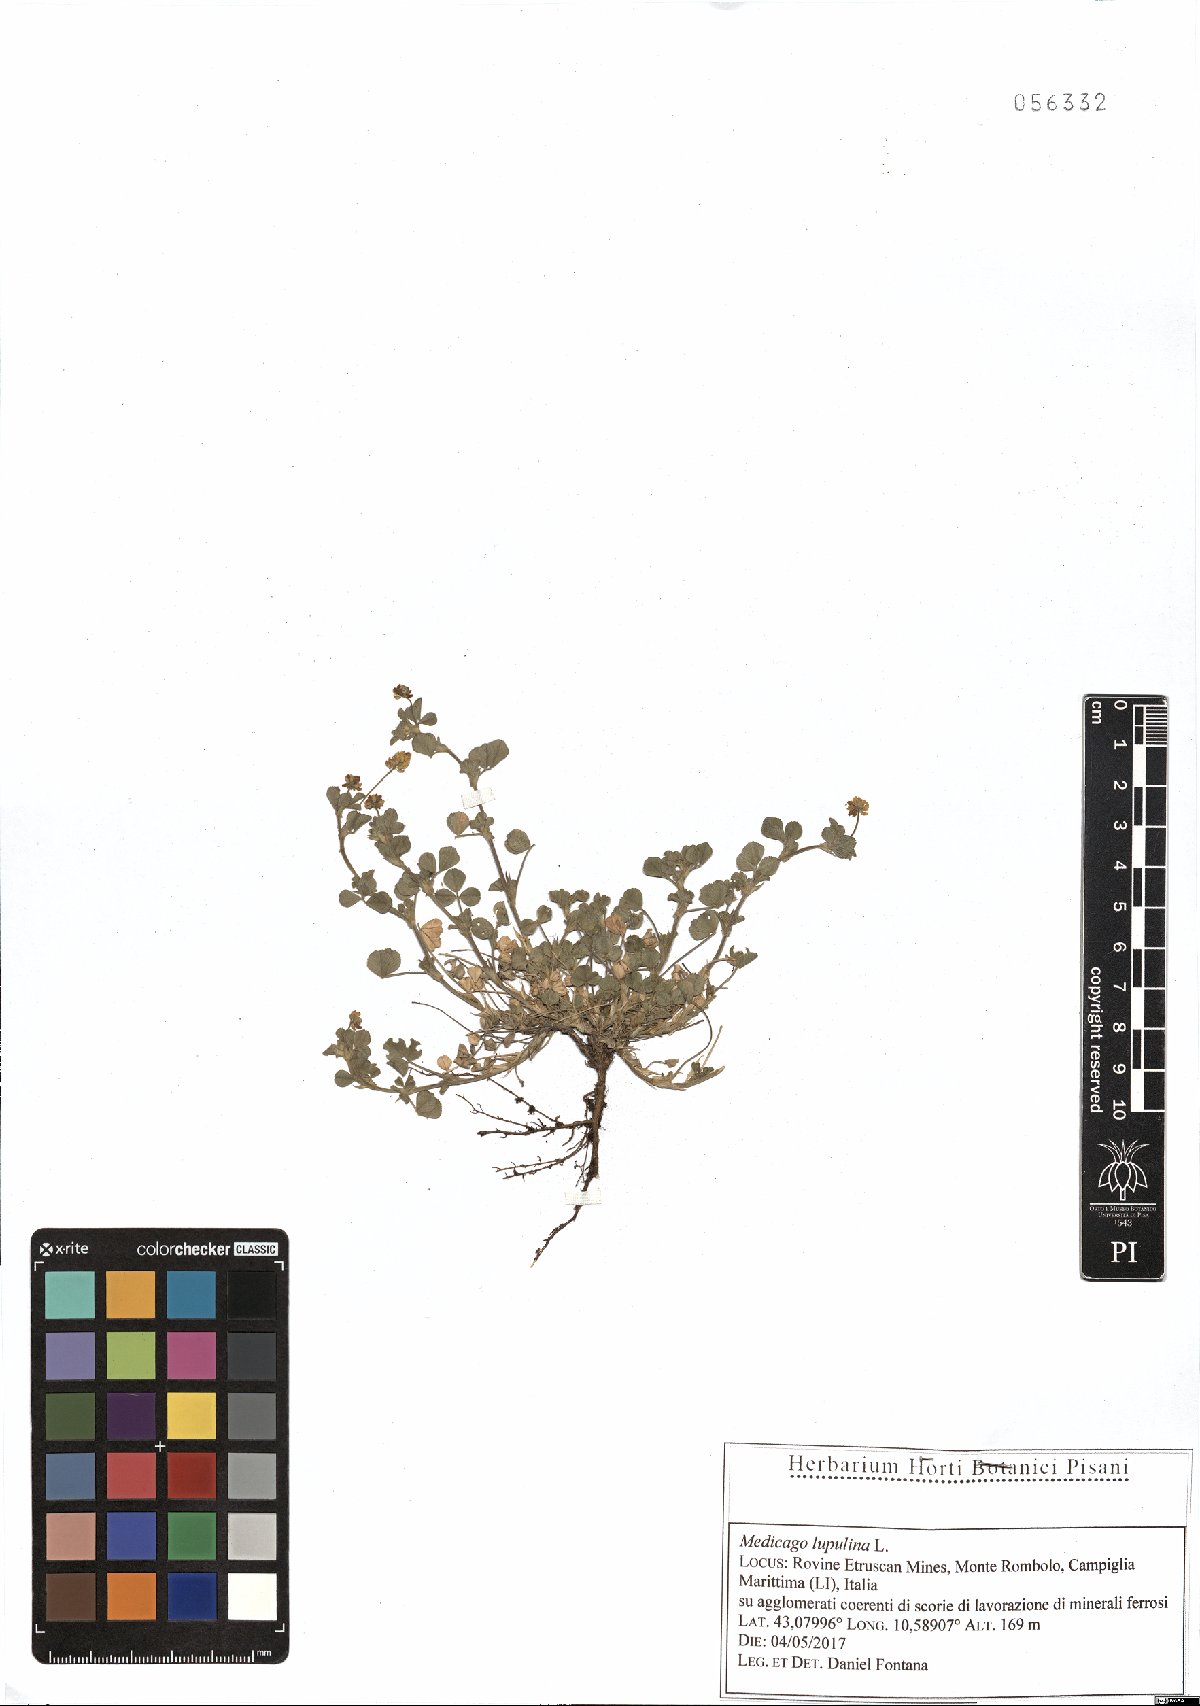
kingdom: Plantae
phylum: Tracheophyta
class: Magnoliopsida
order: Fabales
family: Fabaceae
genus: Medicago
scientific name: Medicago lupulina
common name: Black medick
